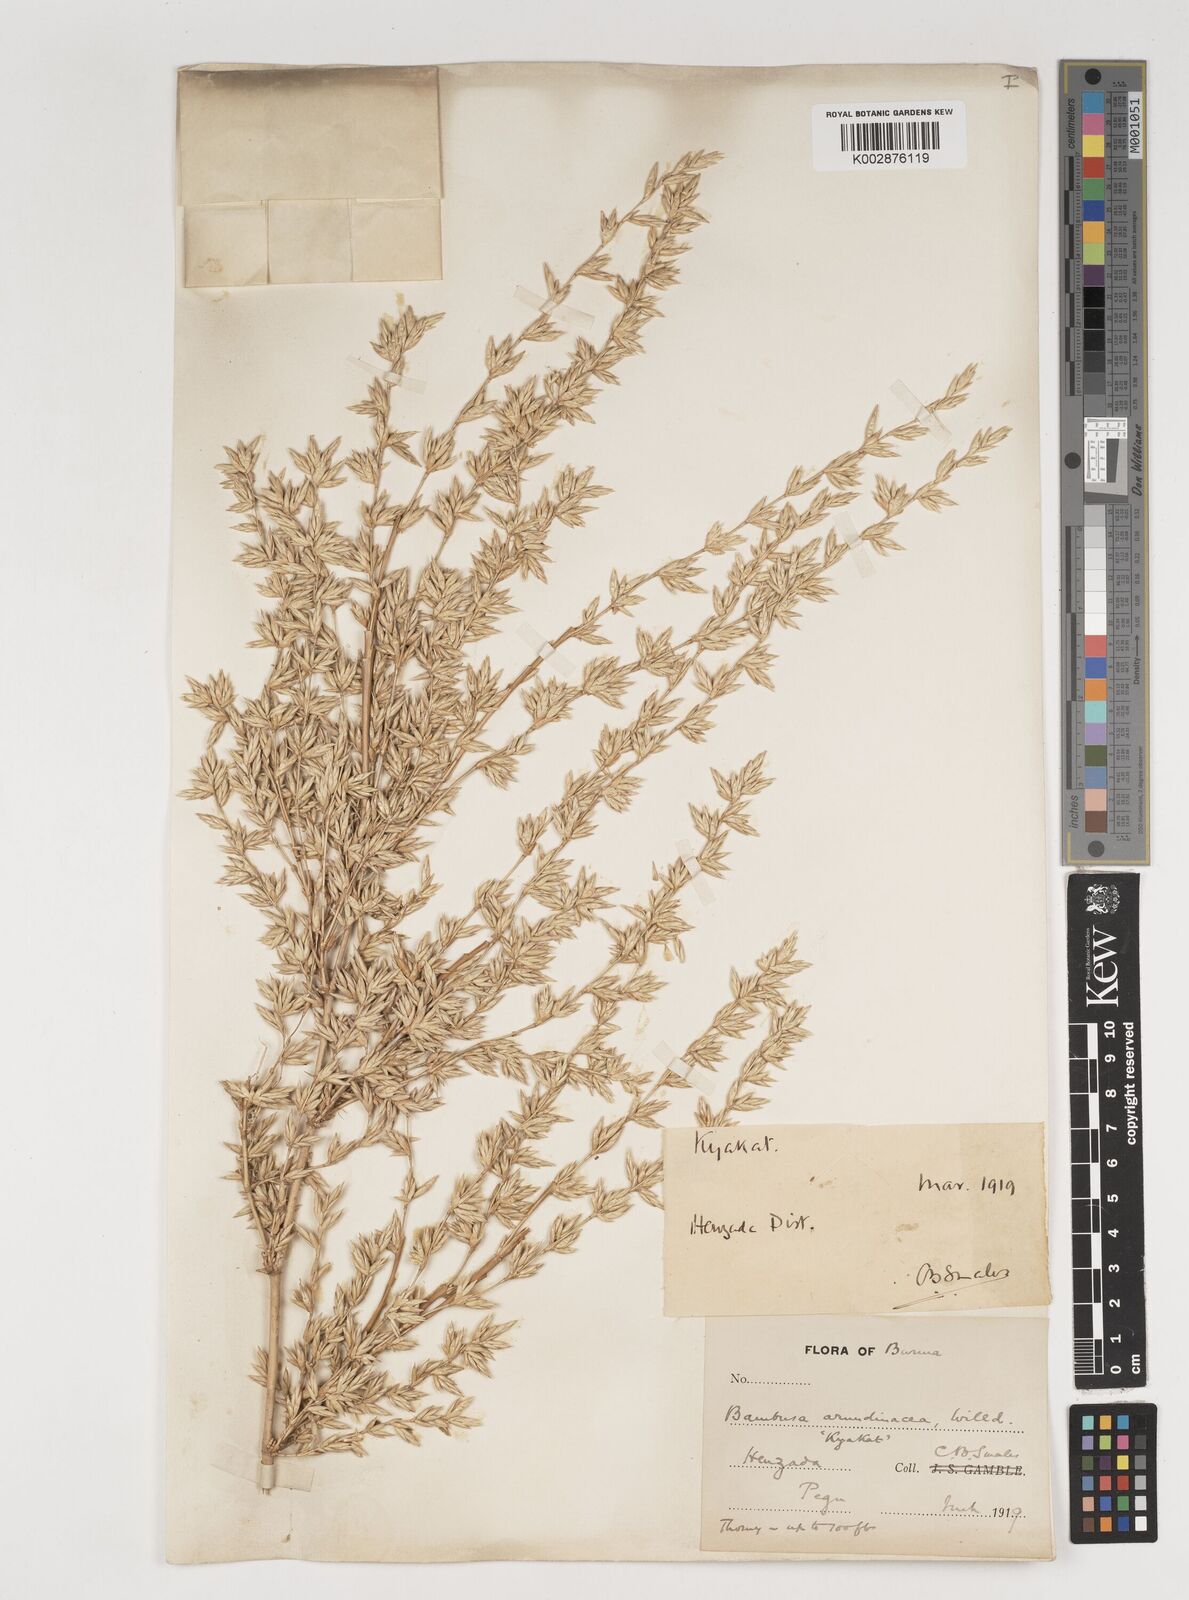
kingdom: Plantae
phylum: Tracheophyta
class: Liliopsida
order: Poales
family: Poaceae
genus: Bambusa
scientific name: Bambusa bambos
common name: Indian thorny bamboo
